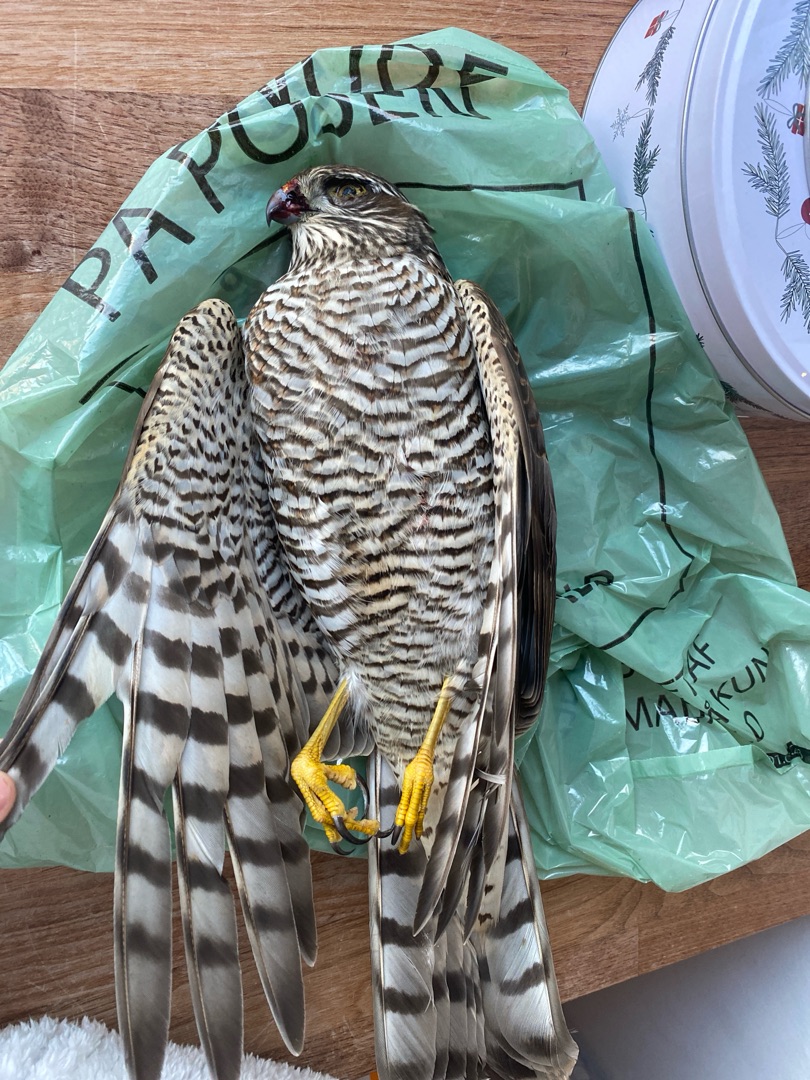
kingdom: Animalia
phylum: Chordata
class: Aves
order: Accipitriformes
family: Accipitridae
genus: Accipiter
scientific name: Accipiter nisus
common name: Spurvehøg
